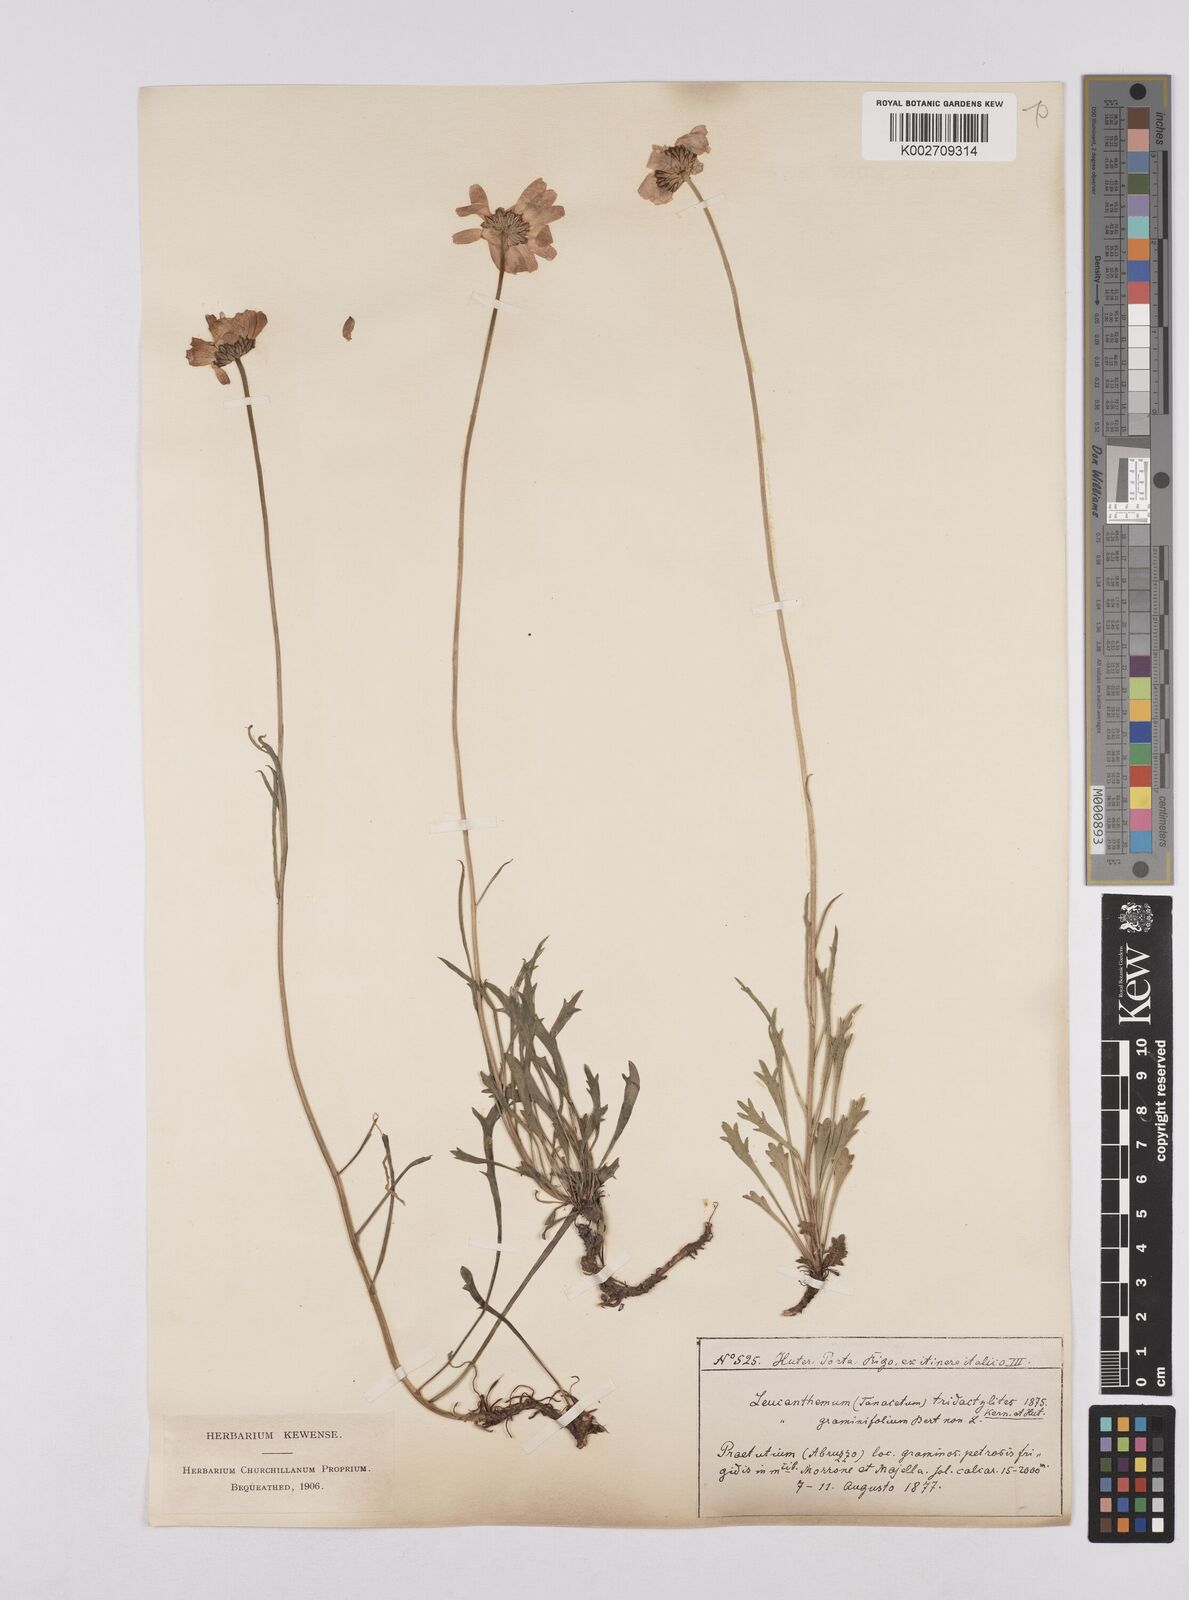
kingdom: Plantae
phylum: Tracheophyta
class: Magnoliopsida
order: Asterales
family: Asteraceae
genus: Leucanthemum
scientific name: Leucanthemum chloroticum
